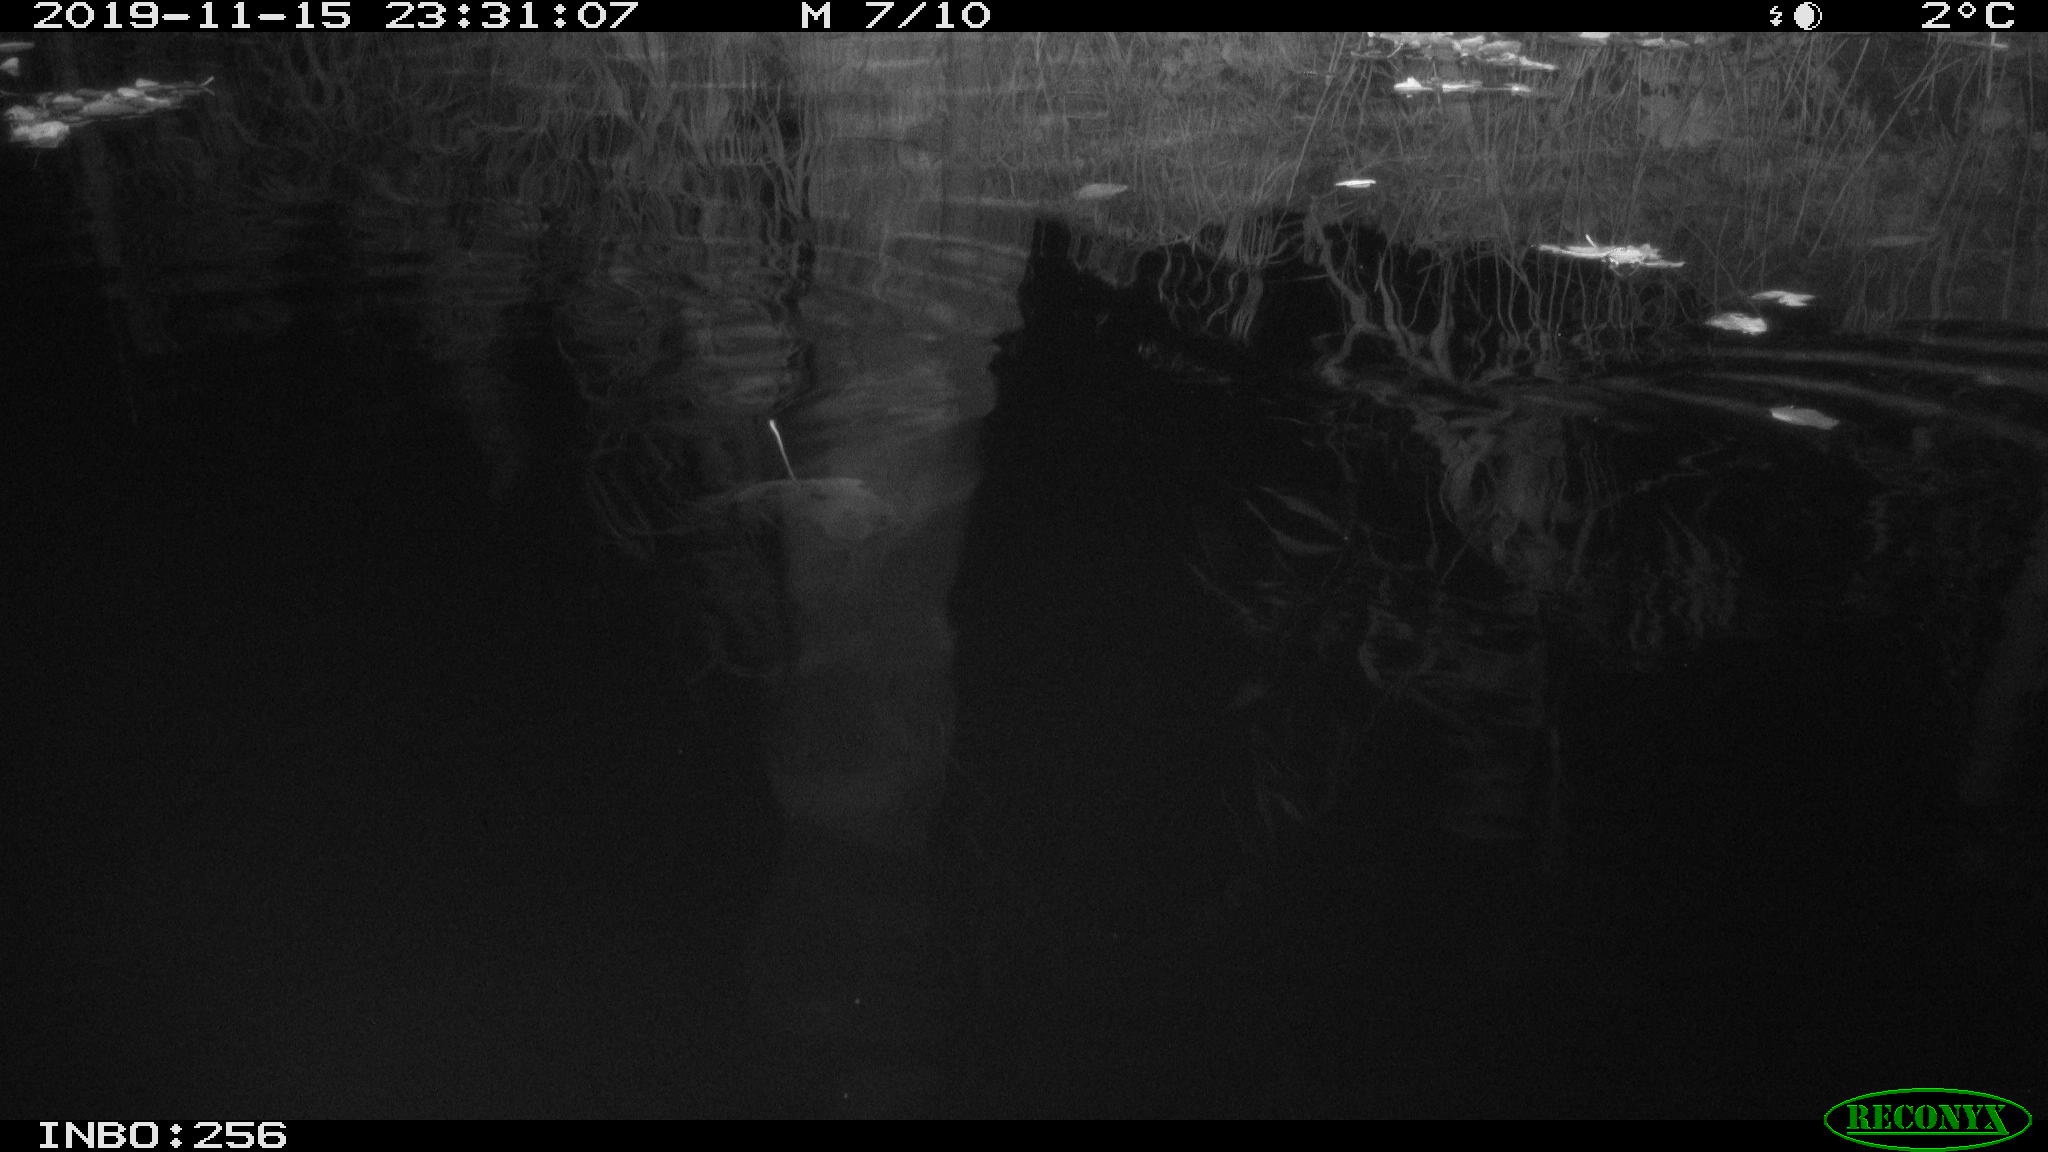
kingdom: Animalia
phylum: Chordata
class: Mammalia
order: Rodentia
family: Muridae
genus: Rattus
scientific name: Rattus norvegicus
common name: Brown rat
